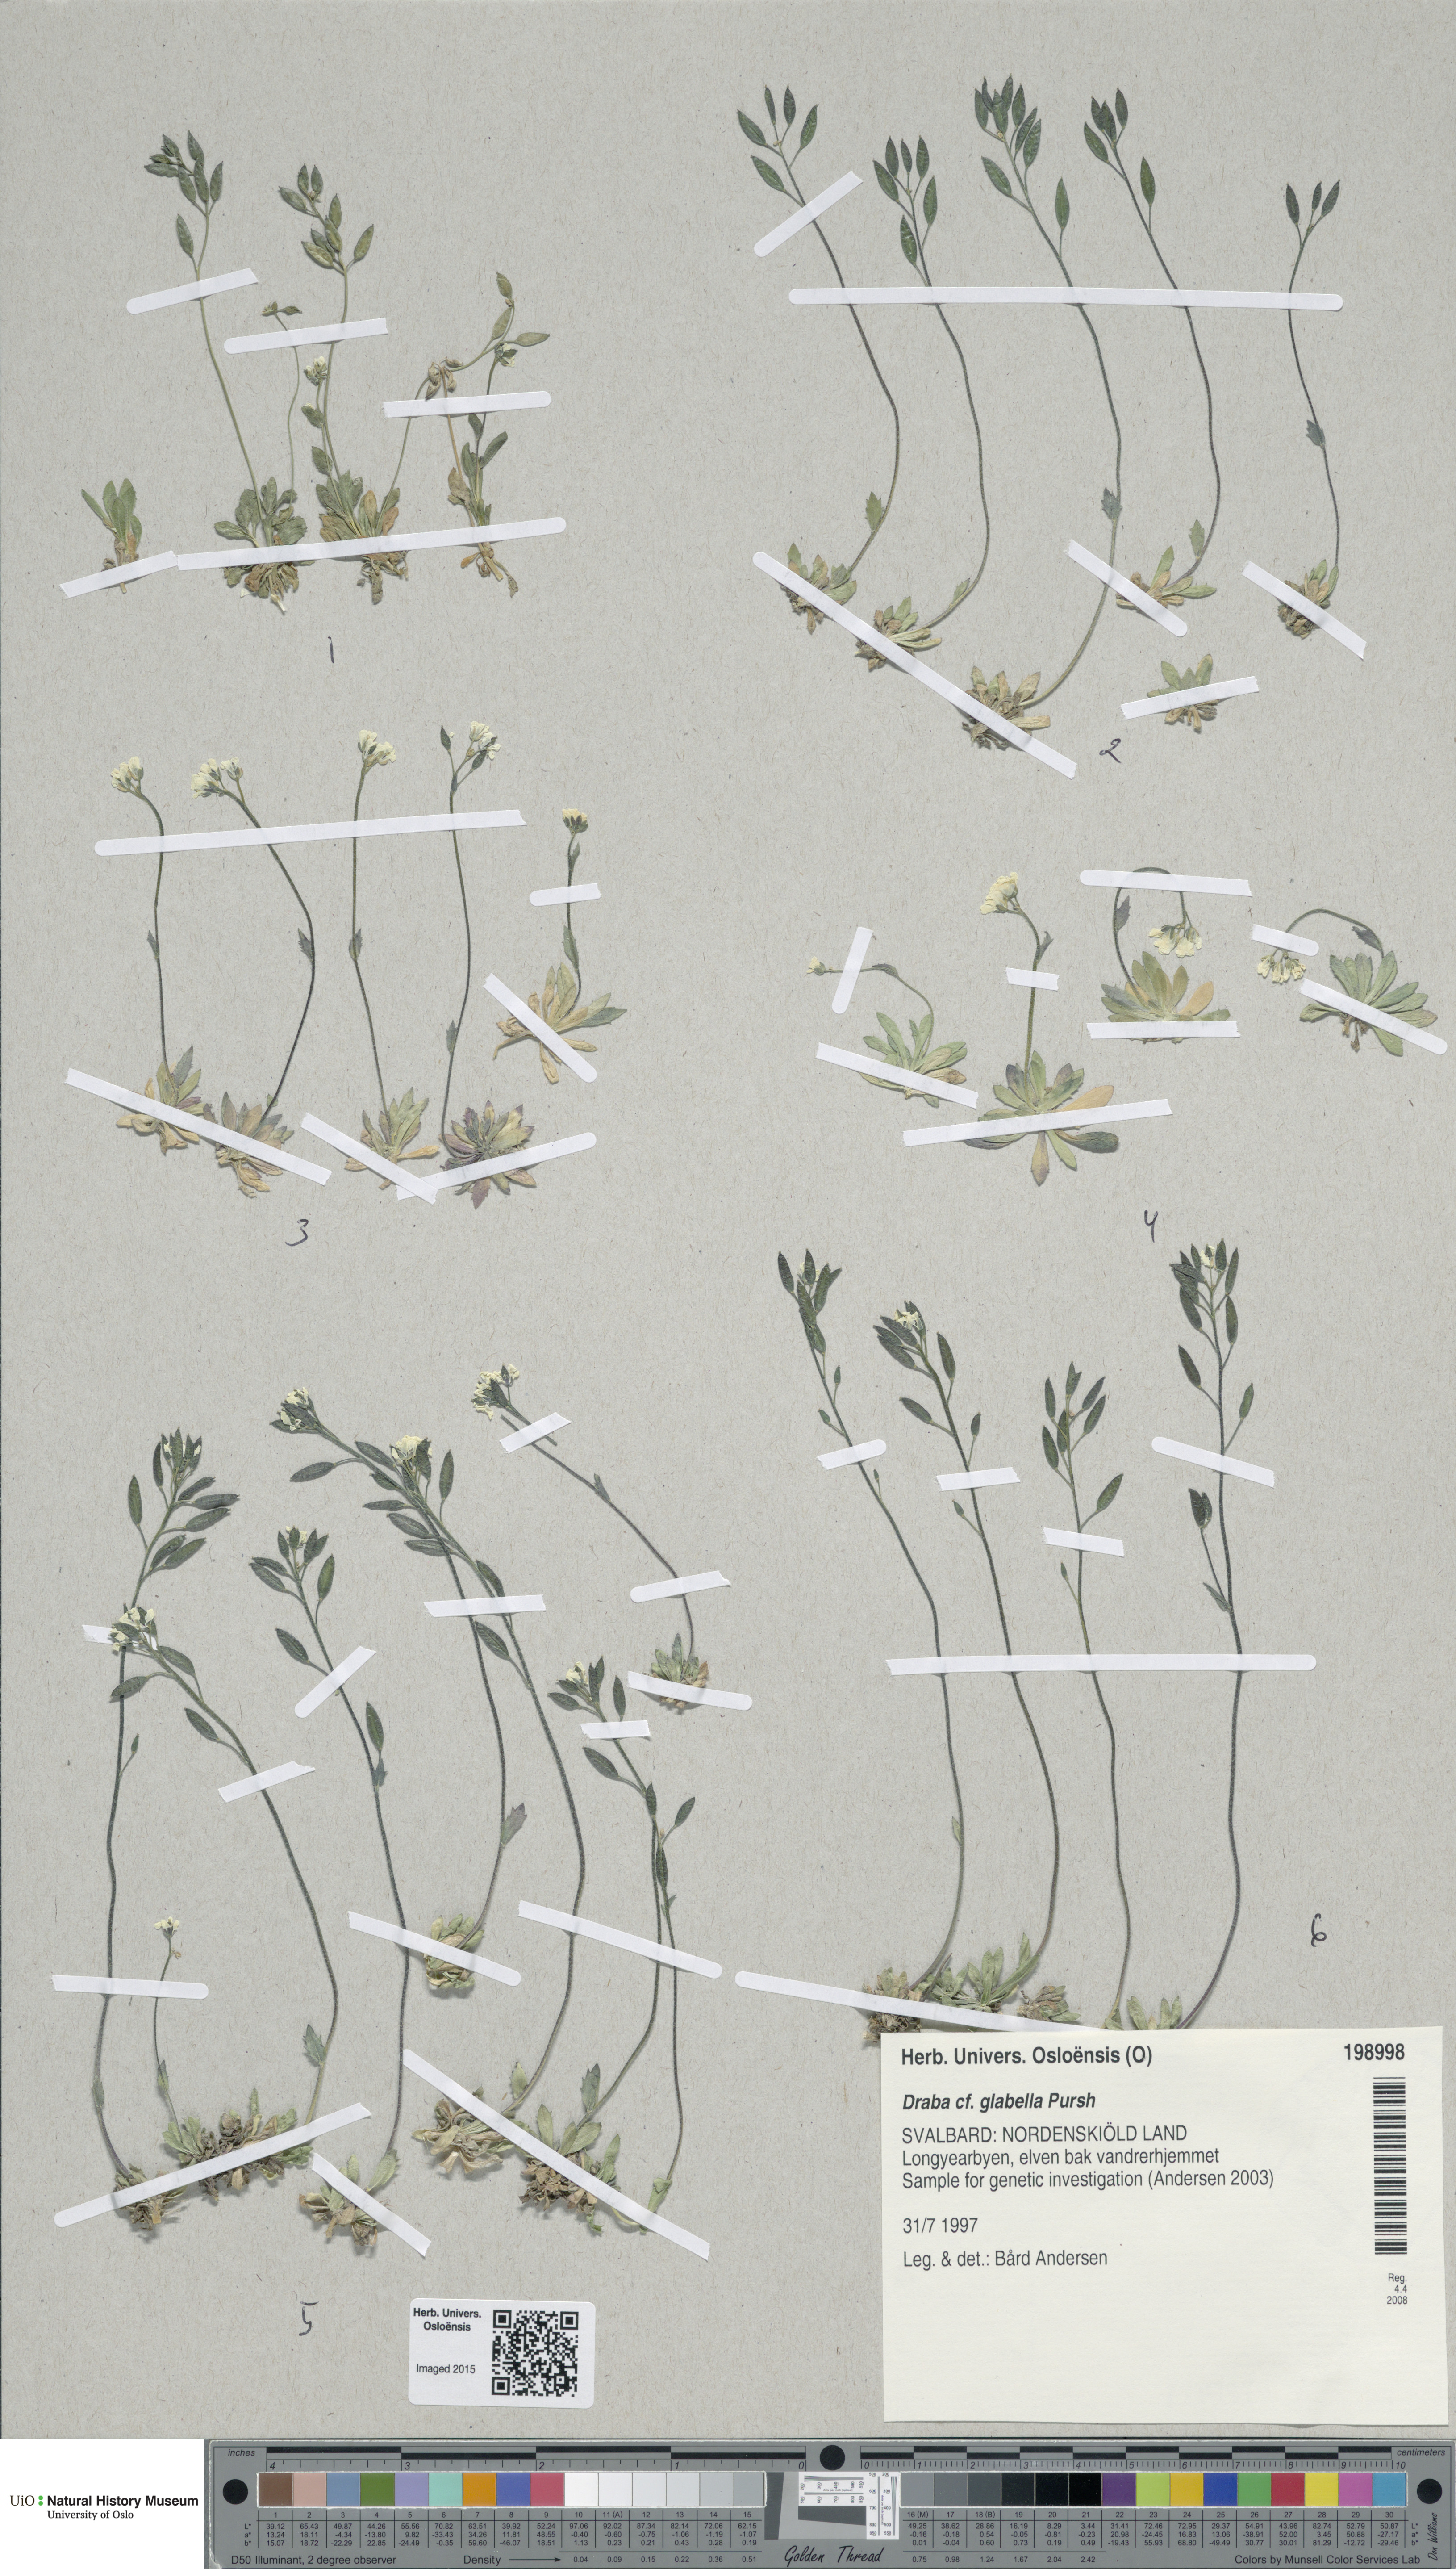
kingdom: Plantae
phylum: Tracheophyta
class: Magnoliopsida
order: Brassicales
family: Brassicaceae
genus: Draba
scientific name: Draba glabella
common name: Glaucous draba
